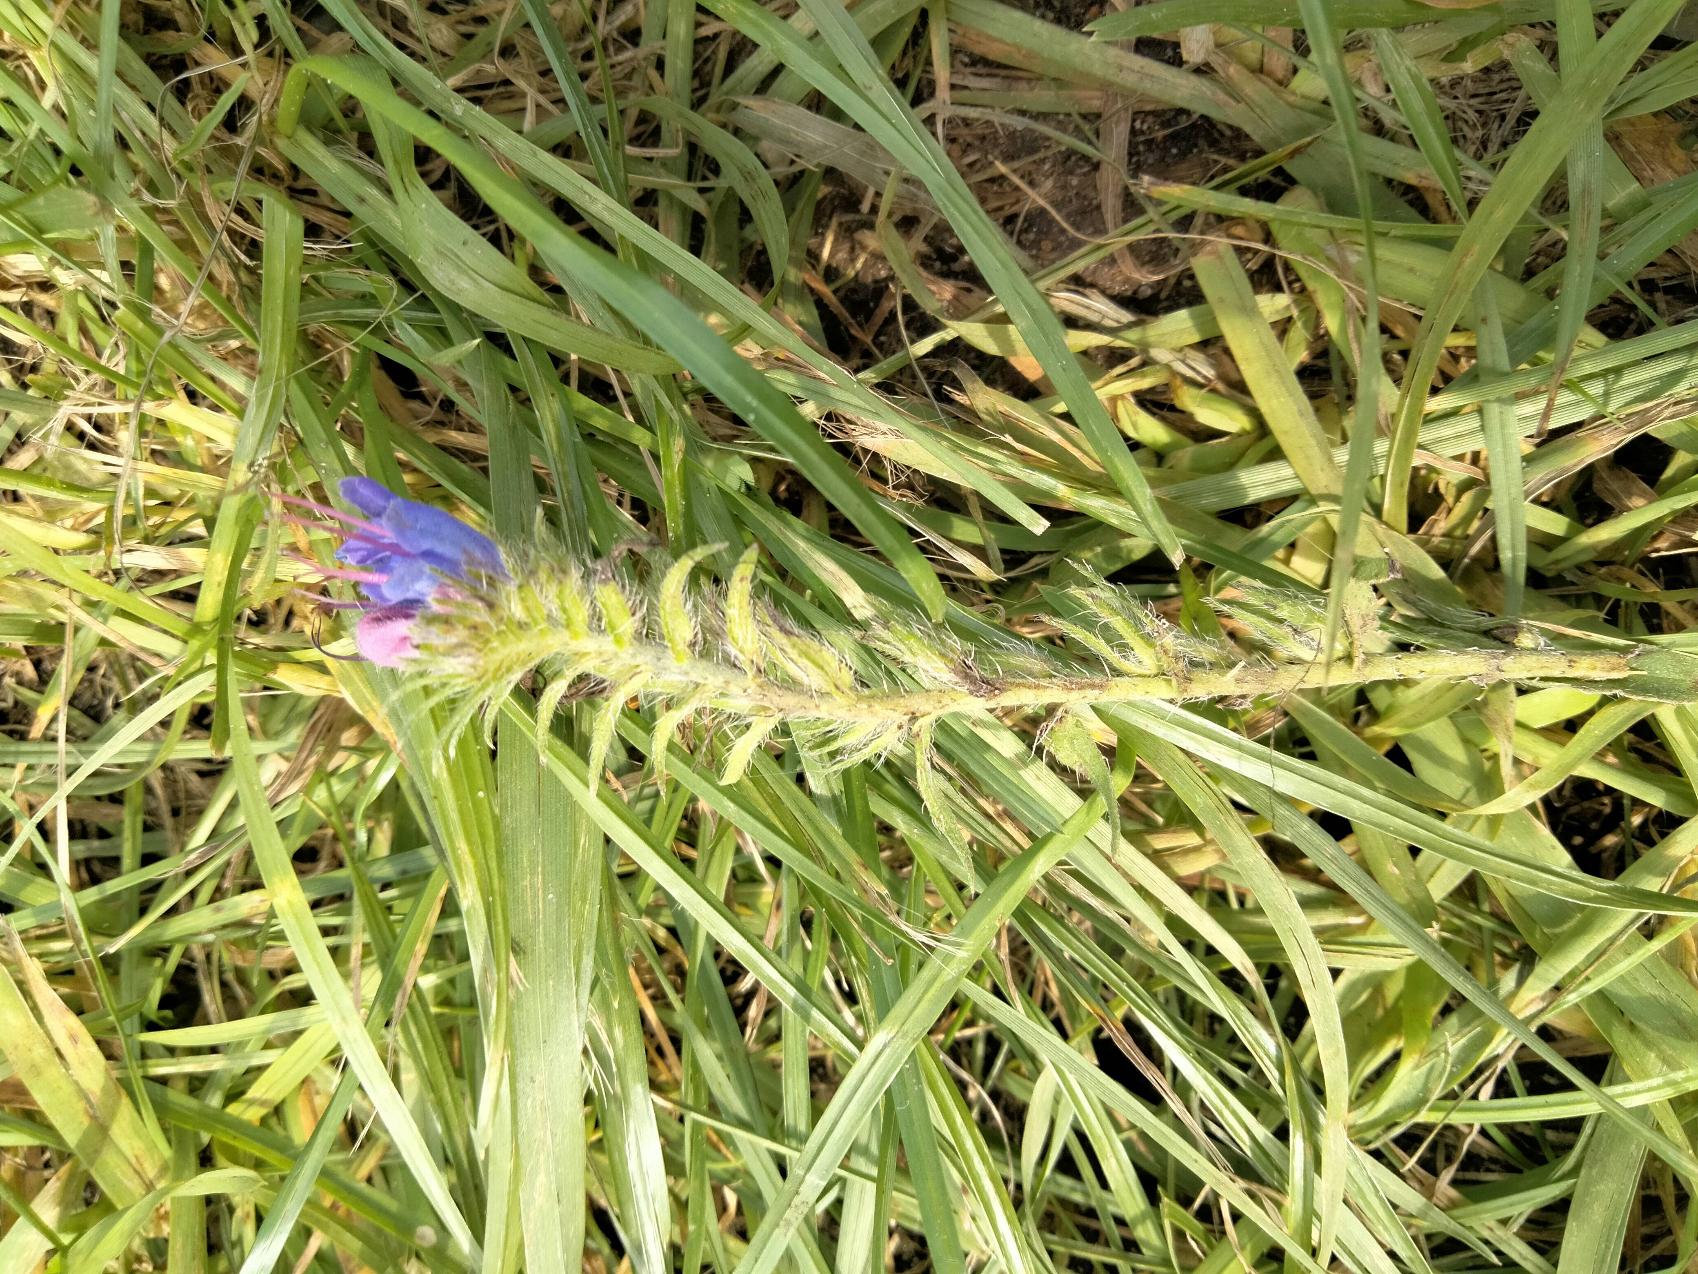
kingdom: Plantae
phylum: Tracheophyta
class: Magnoliopsida
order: Boraginales
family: Boraginaceae
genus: Echium
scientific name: Echium vulgare
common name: Slangehoved
